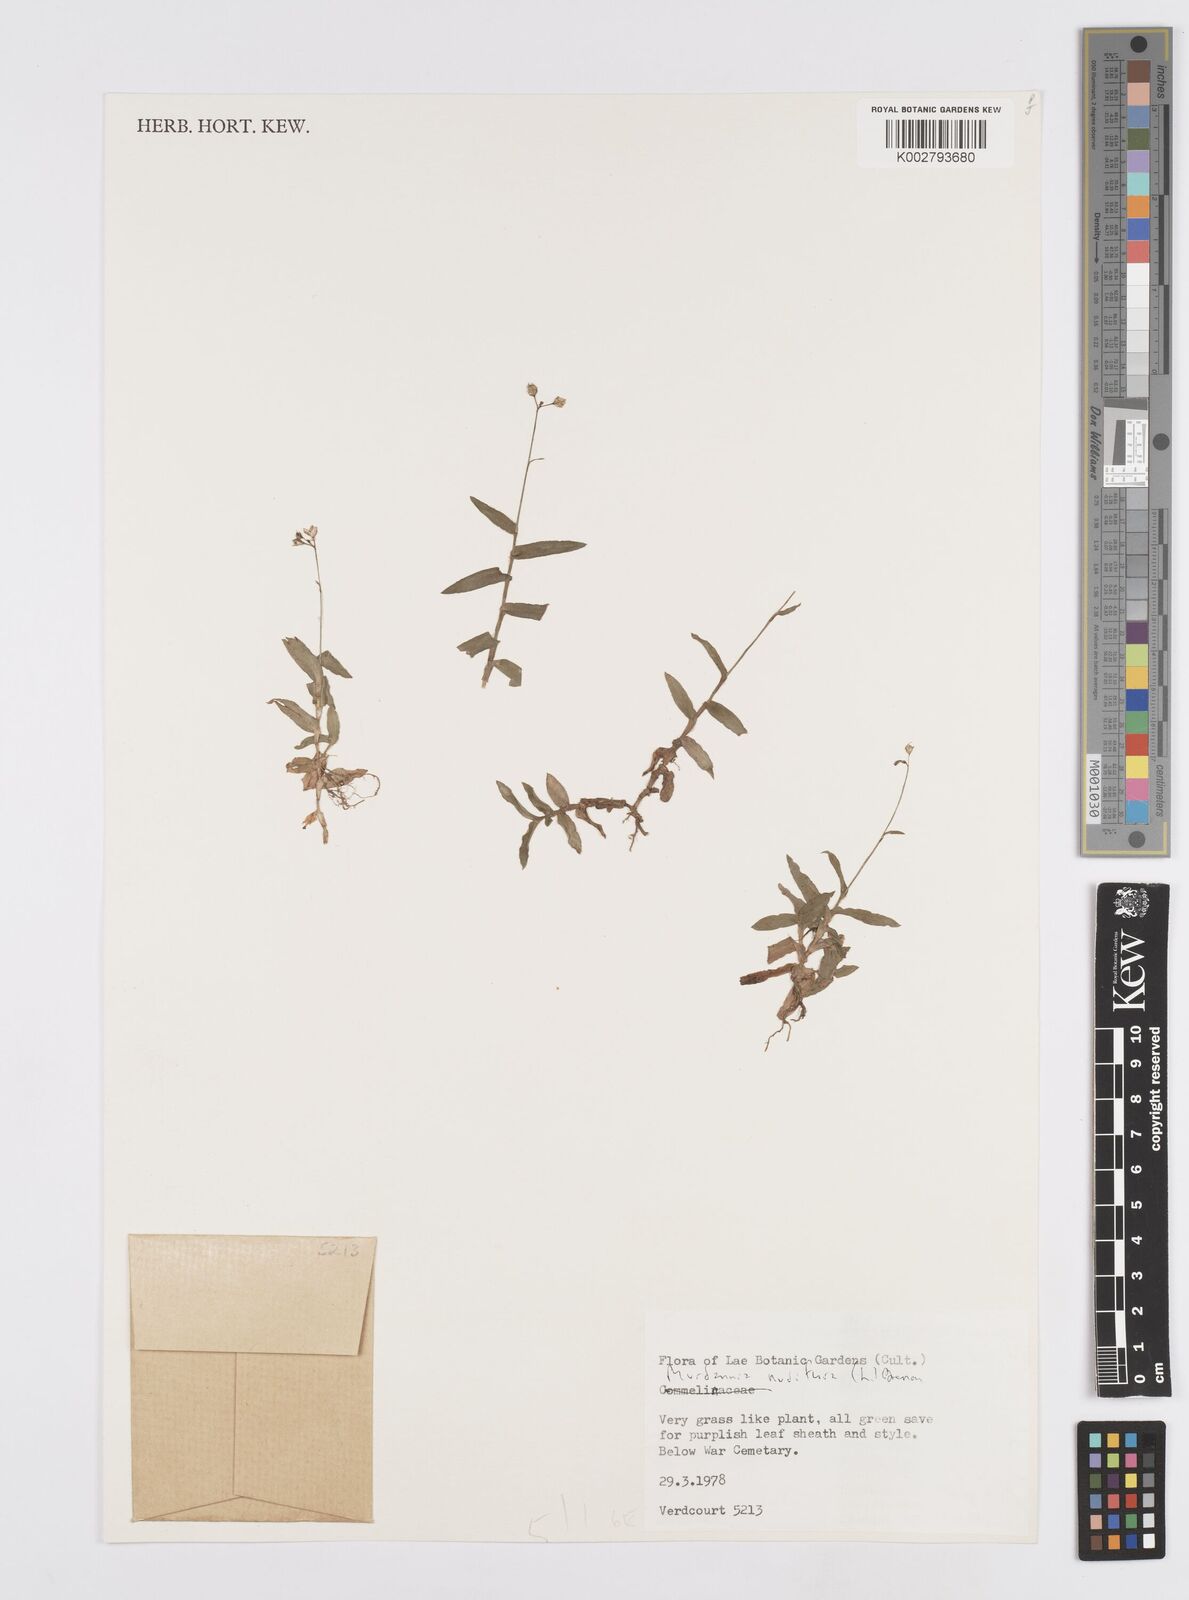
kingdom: Plantae
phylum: Tracheophyta
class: Liliopsida
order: Commelinales
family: Commelinaceae
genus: Murdannia
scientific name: Murdannia nudiflora
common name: Nakedstem dewflower
